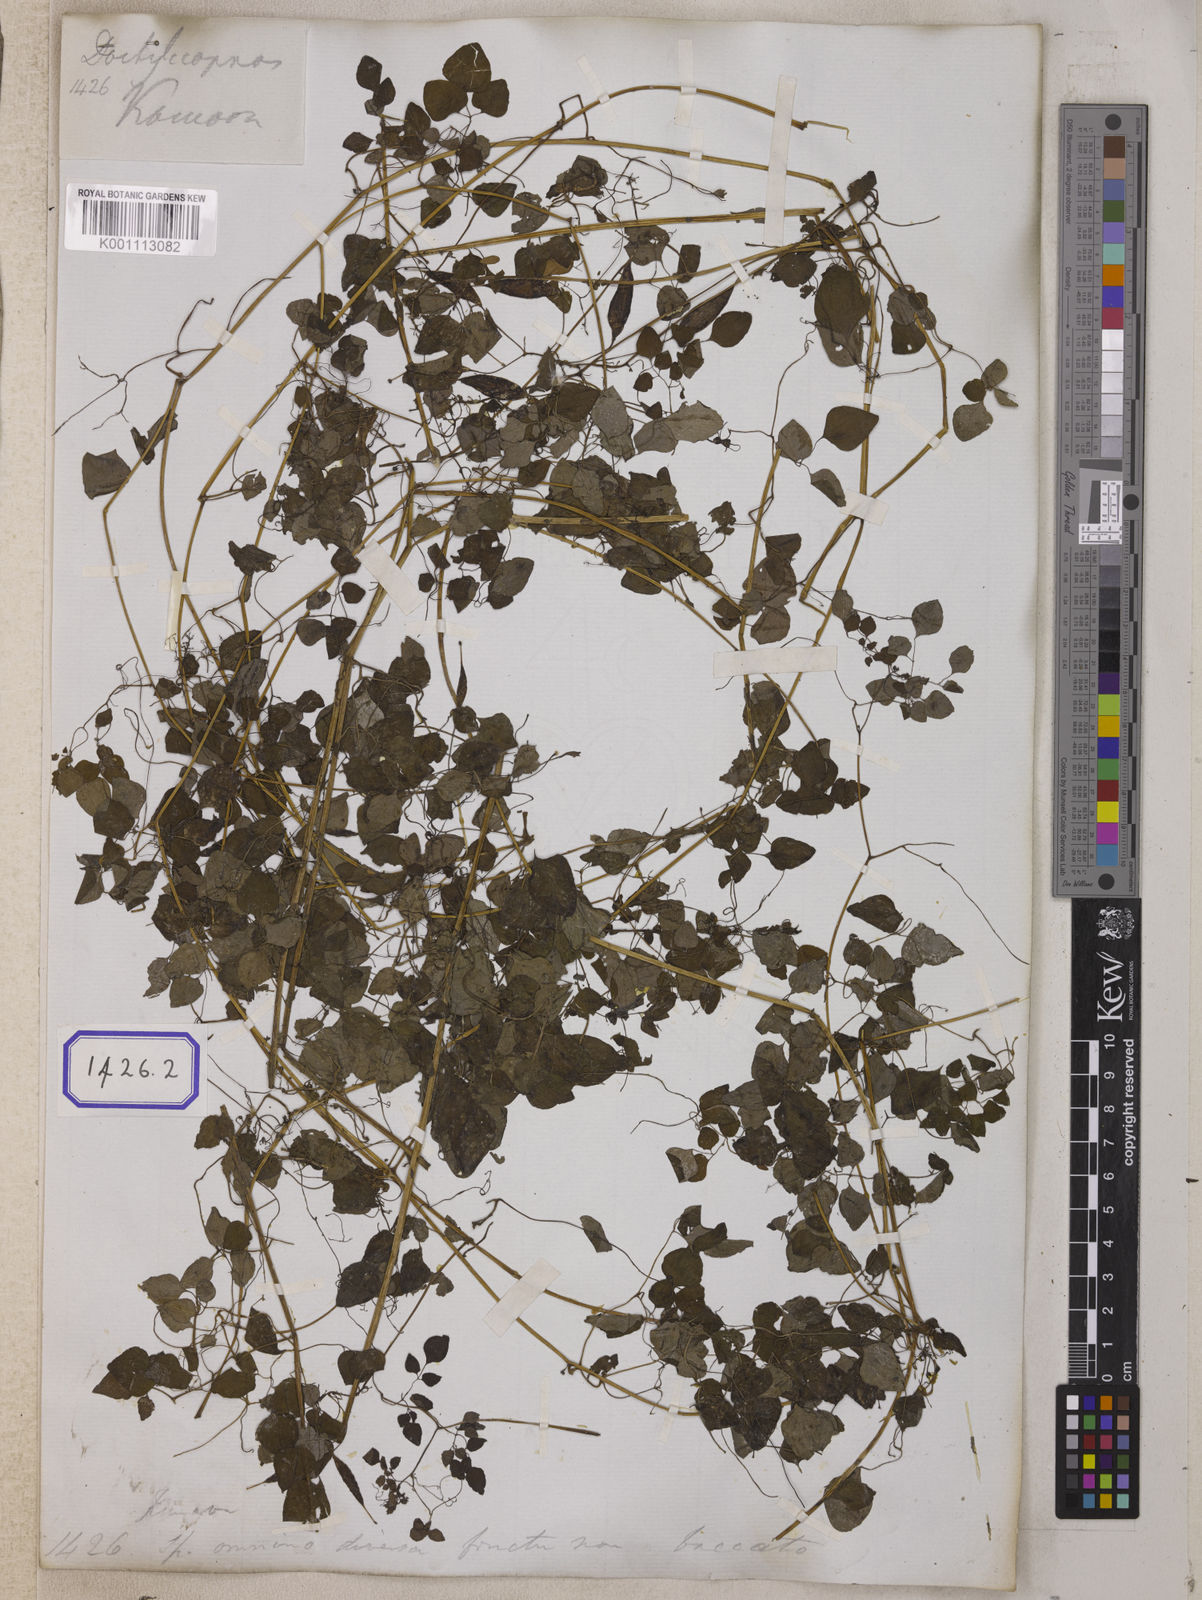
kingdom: Plantae
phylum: Tracheophyta
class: Magnoliopsida
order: Ranunculales
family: Papaveraceae
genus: Dactylicapnos
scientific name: Dactylicapnos scandens
